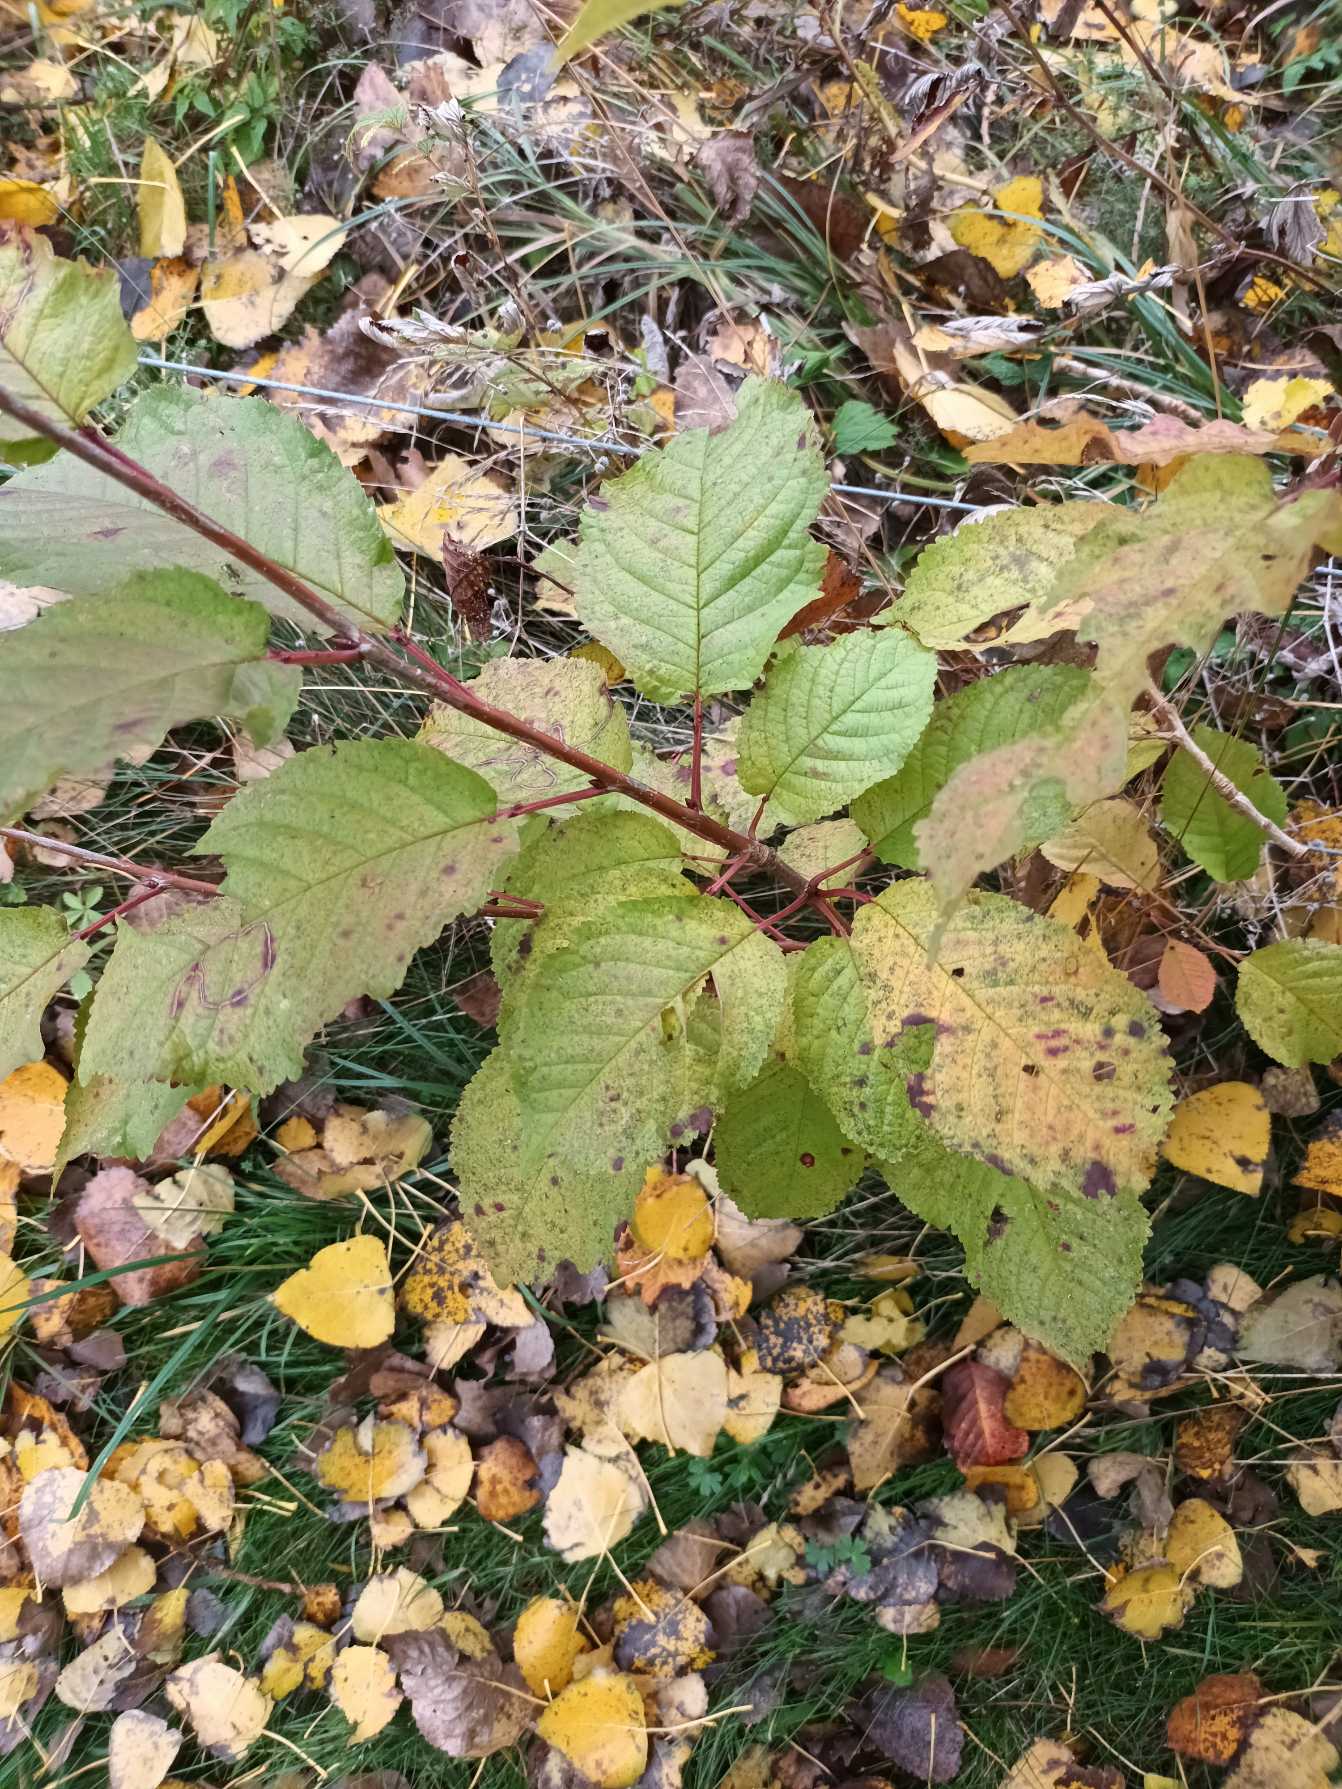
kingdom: Plantae
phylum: Tracheophyta
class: Magnoliopsida
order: Rosales
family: Rosaceae
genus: Prunus
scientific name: Prunus avium
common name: Fugle-kirsebær
